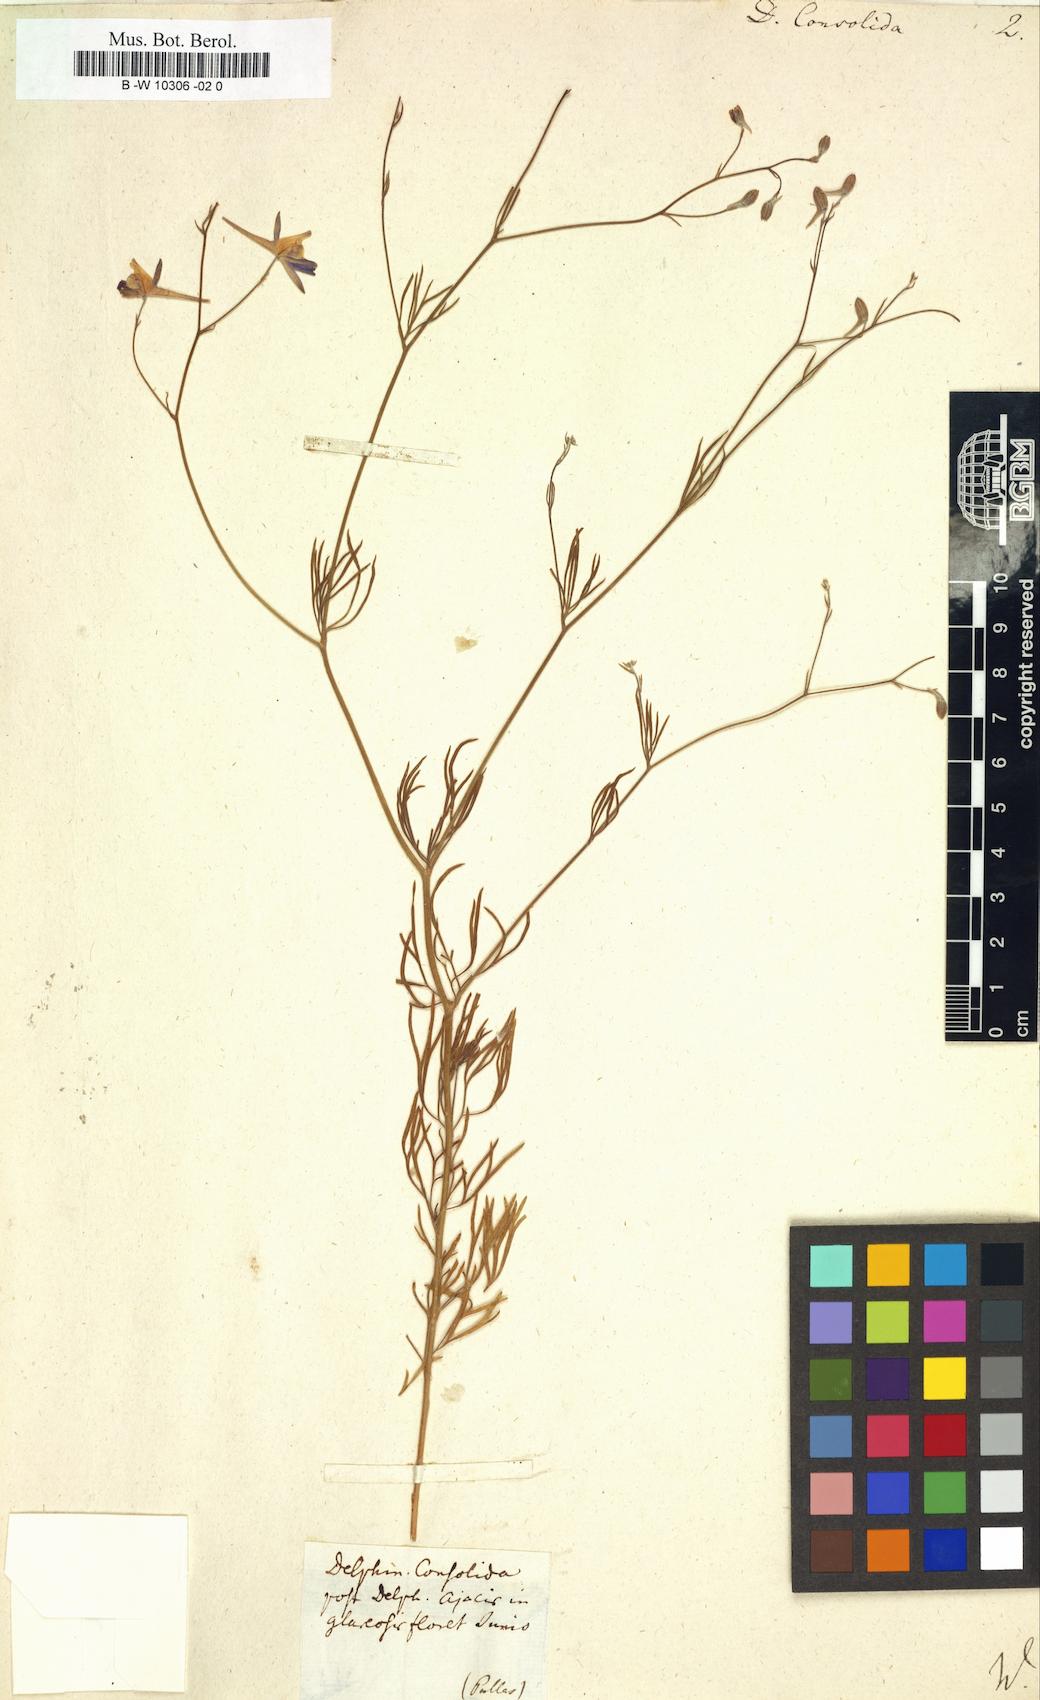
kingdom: Plantae
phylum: Tracheophyta
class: Magnoliopsida
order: Ranunculales
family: Ranunculaceae
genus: Delphinium
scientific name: Delphinium consolida
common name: Branching larkspur
